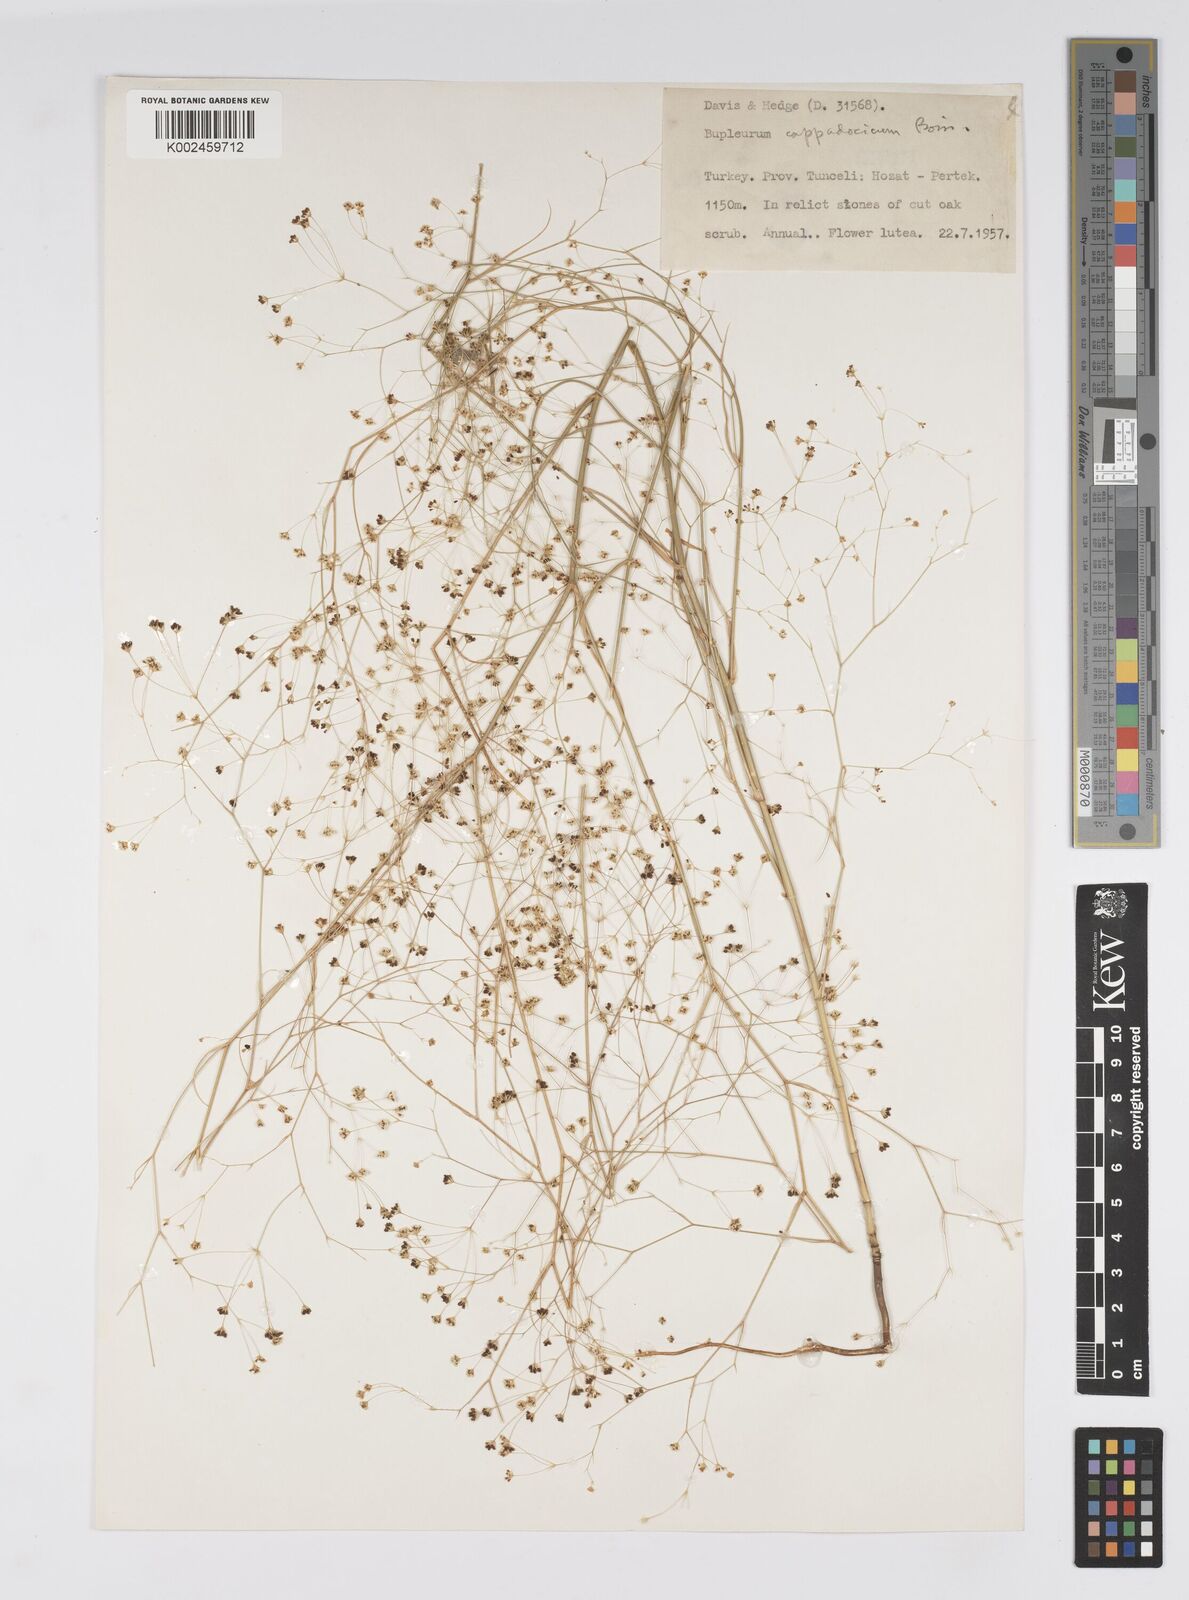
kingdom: Plantae
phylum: Tracheophyta
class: Magnoliopsida
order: Apiales
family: Apiaceae
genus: Bupleurum
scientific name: Bupleurum cappadocicum
